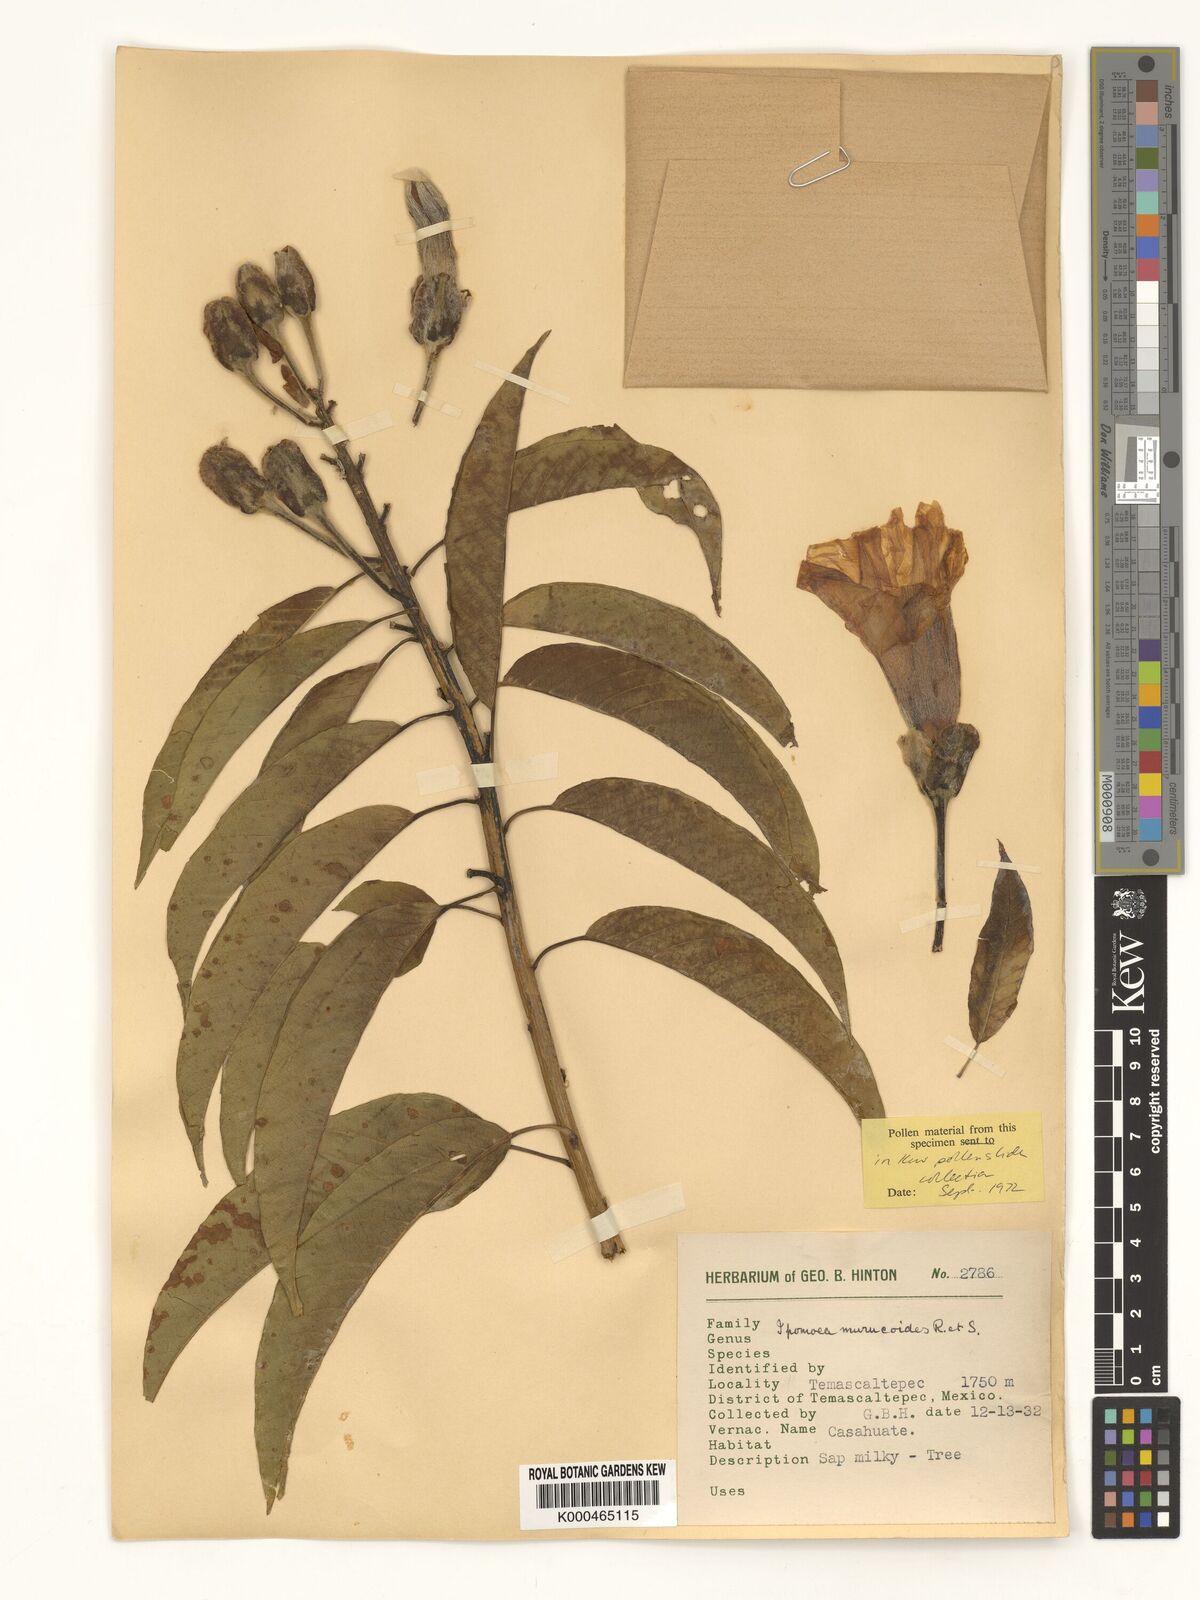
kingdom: Plantae
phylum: Tracheophyta
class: Magnoliopsida
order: Solanales
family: Convolvulaceae
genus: Ipomoea
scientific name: Ipomoea murucoides
